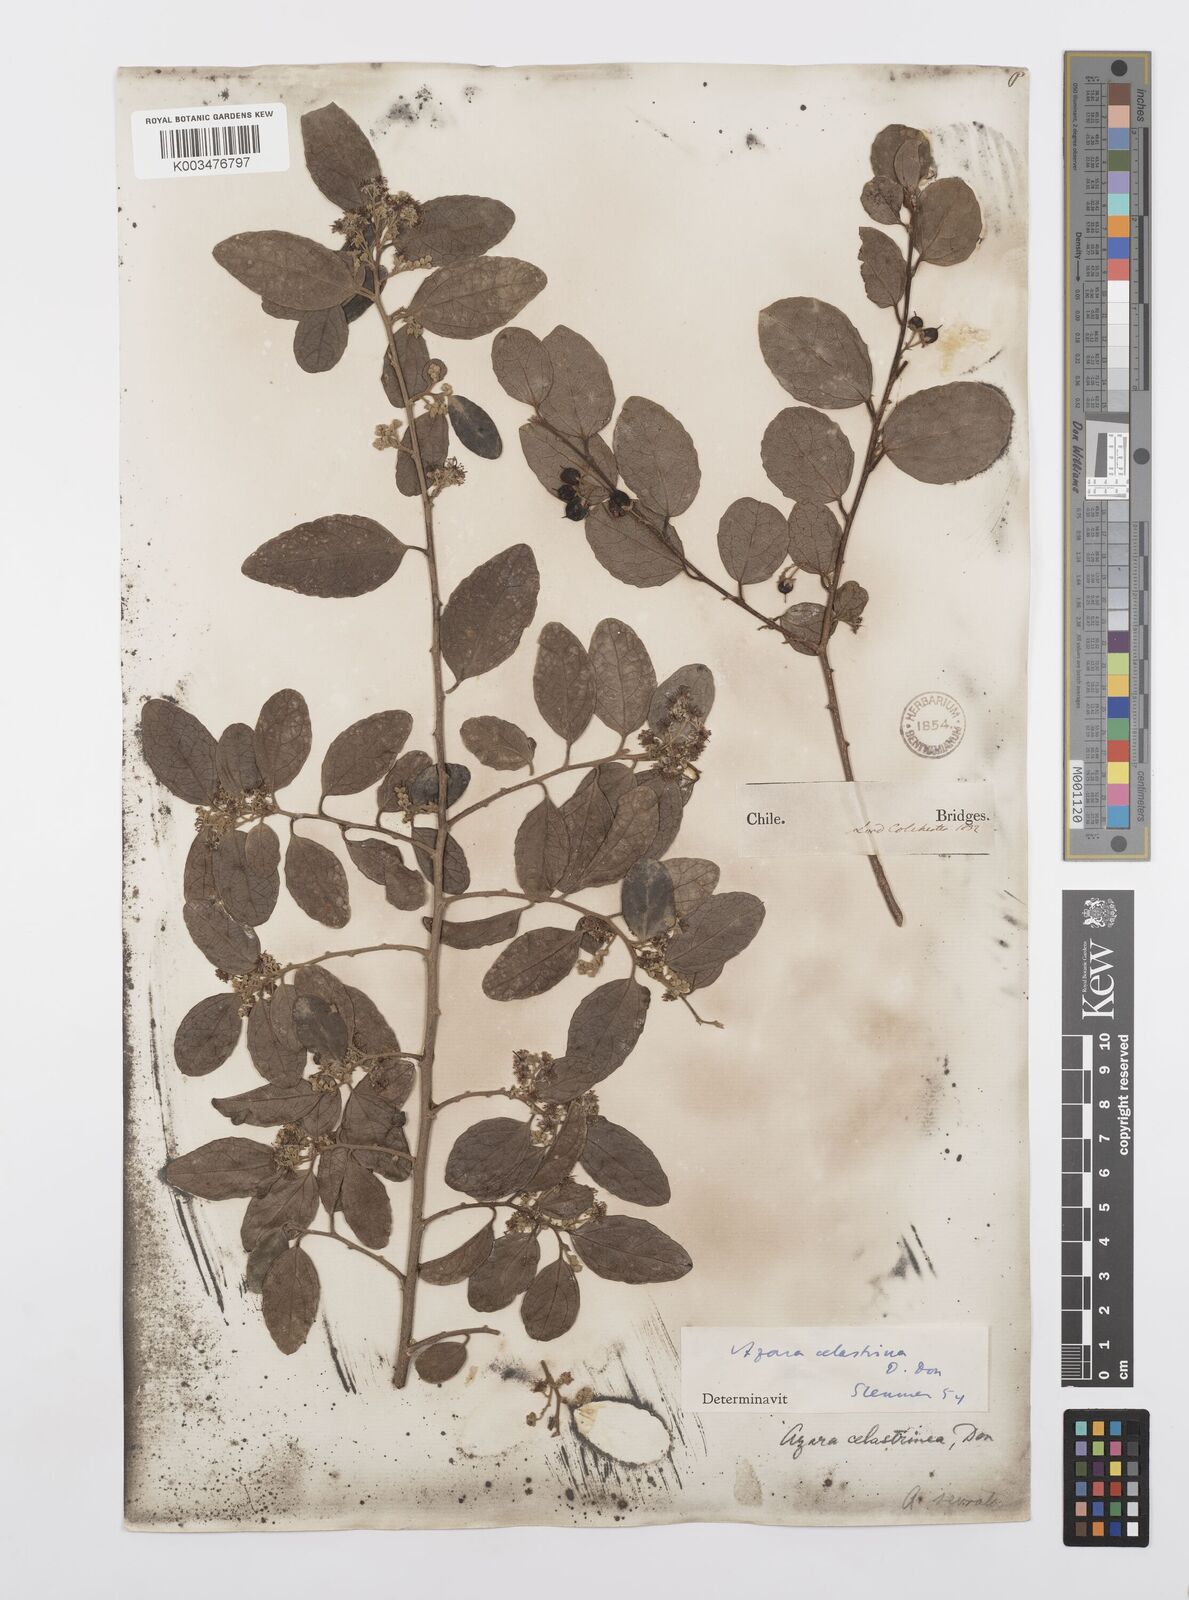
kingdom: Plantae
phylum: Tracheophyta
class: Magnoliopsida
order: Malpighiales
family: Salicaceae
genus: Azara
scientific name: Azara celastrina
